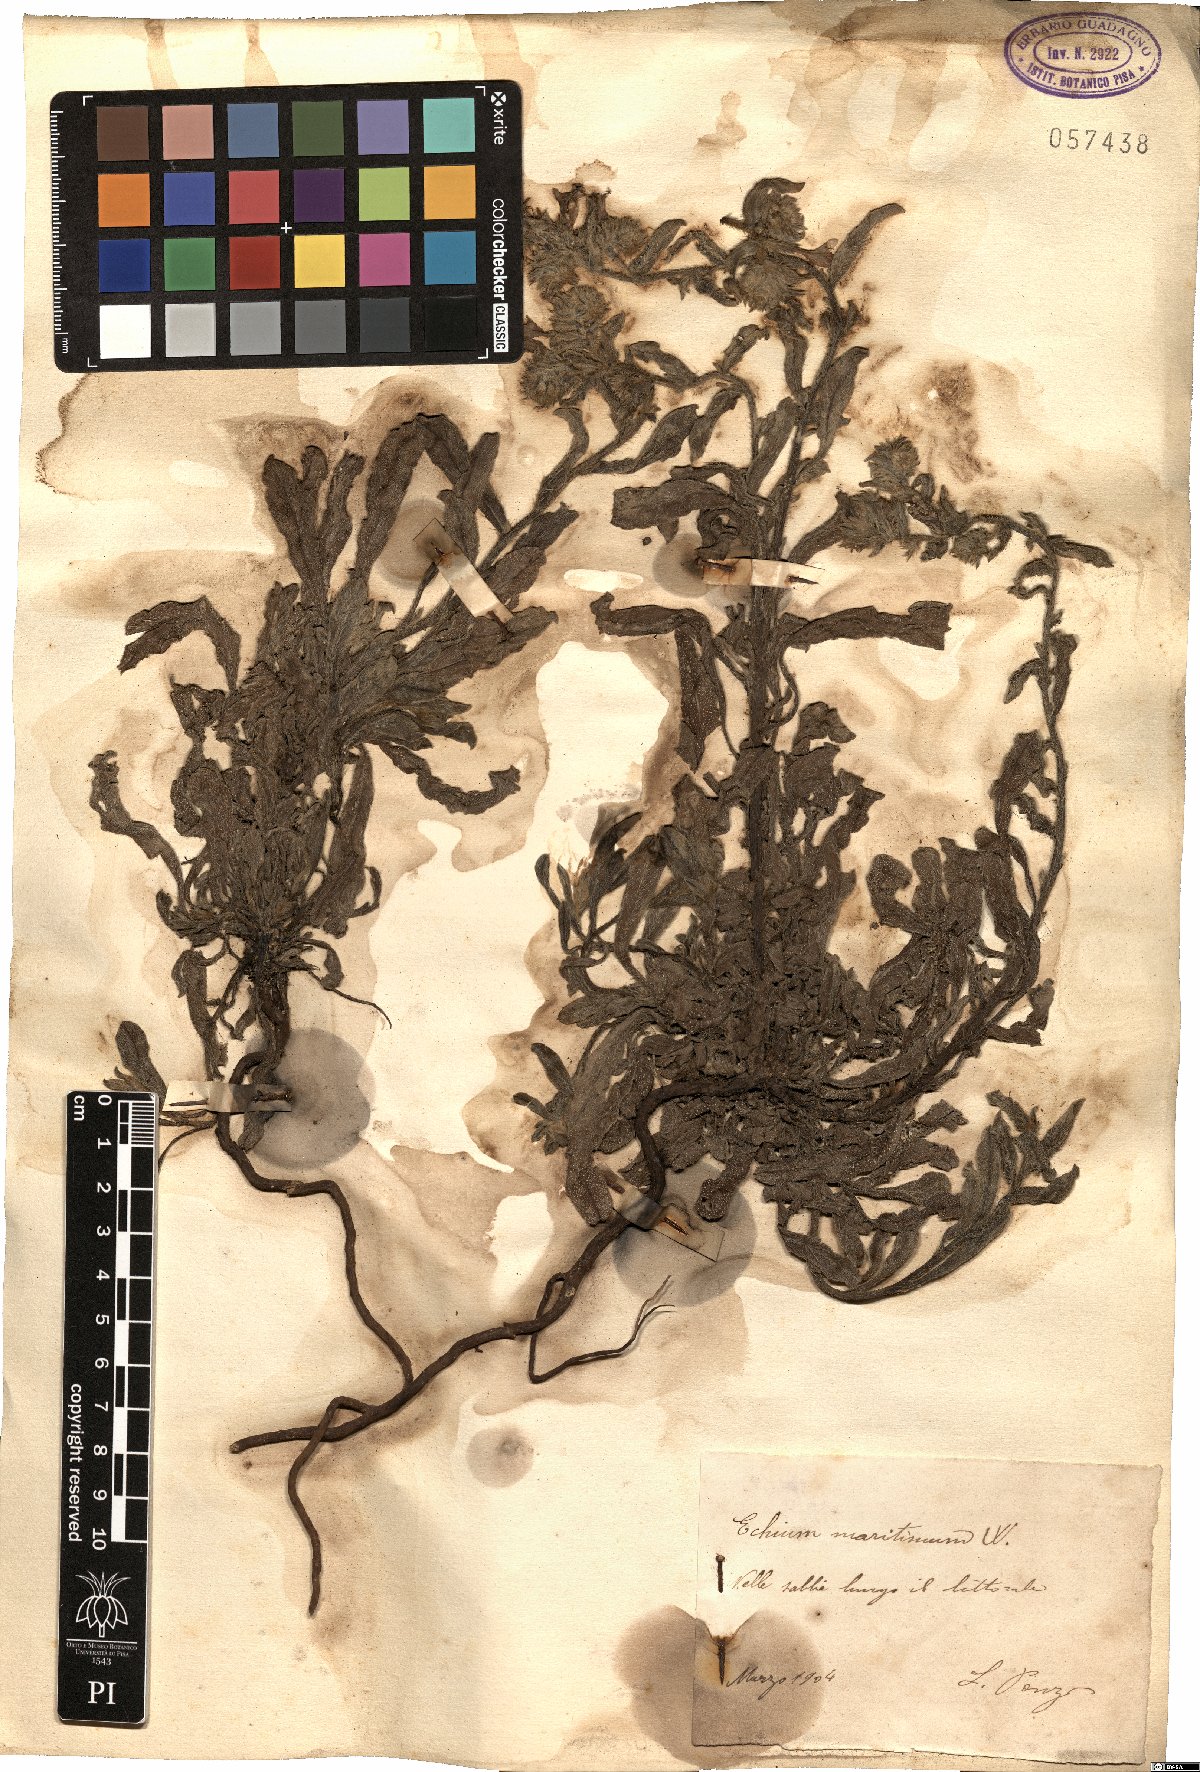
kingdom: Plantae
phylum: Tracheophyta
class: Magnoliopsida
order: Boraginales
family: Boraginaceae
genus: Echium
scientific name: Echium plantagineum
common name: Purple viper's-bugloss
